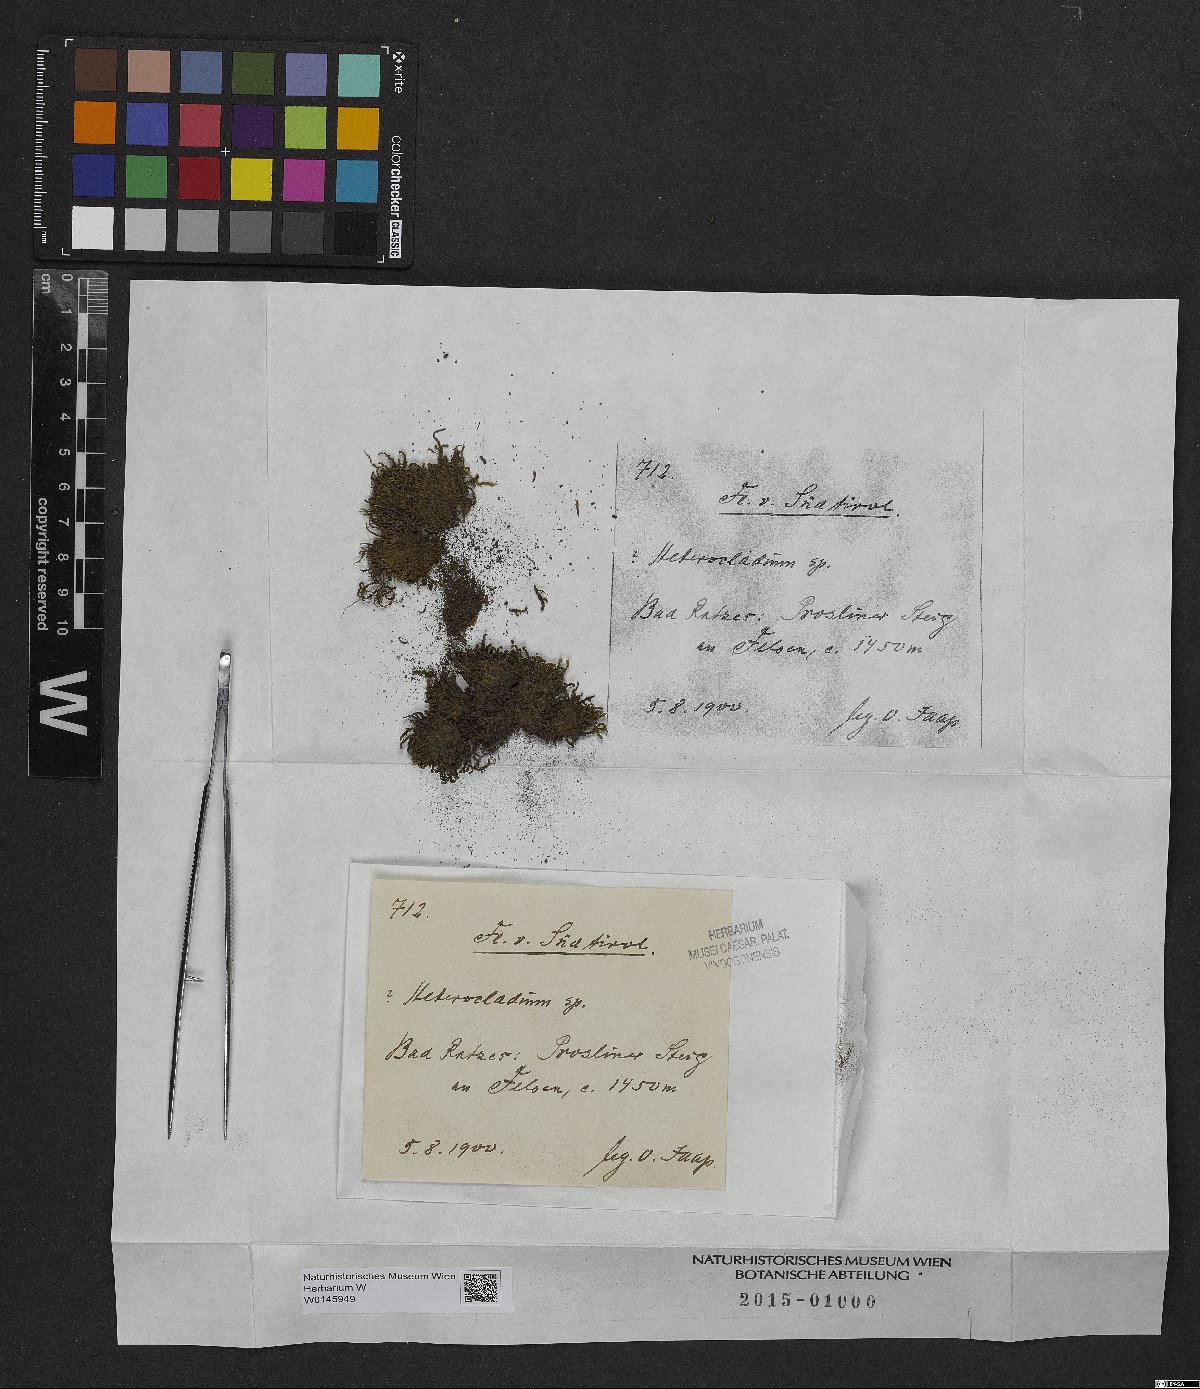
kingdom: Plantae
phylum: Bryophyta
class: Bryopsida
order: Hypnales
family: Lembophyllaceae
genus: Heterocladium
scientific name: Heterocladium
